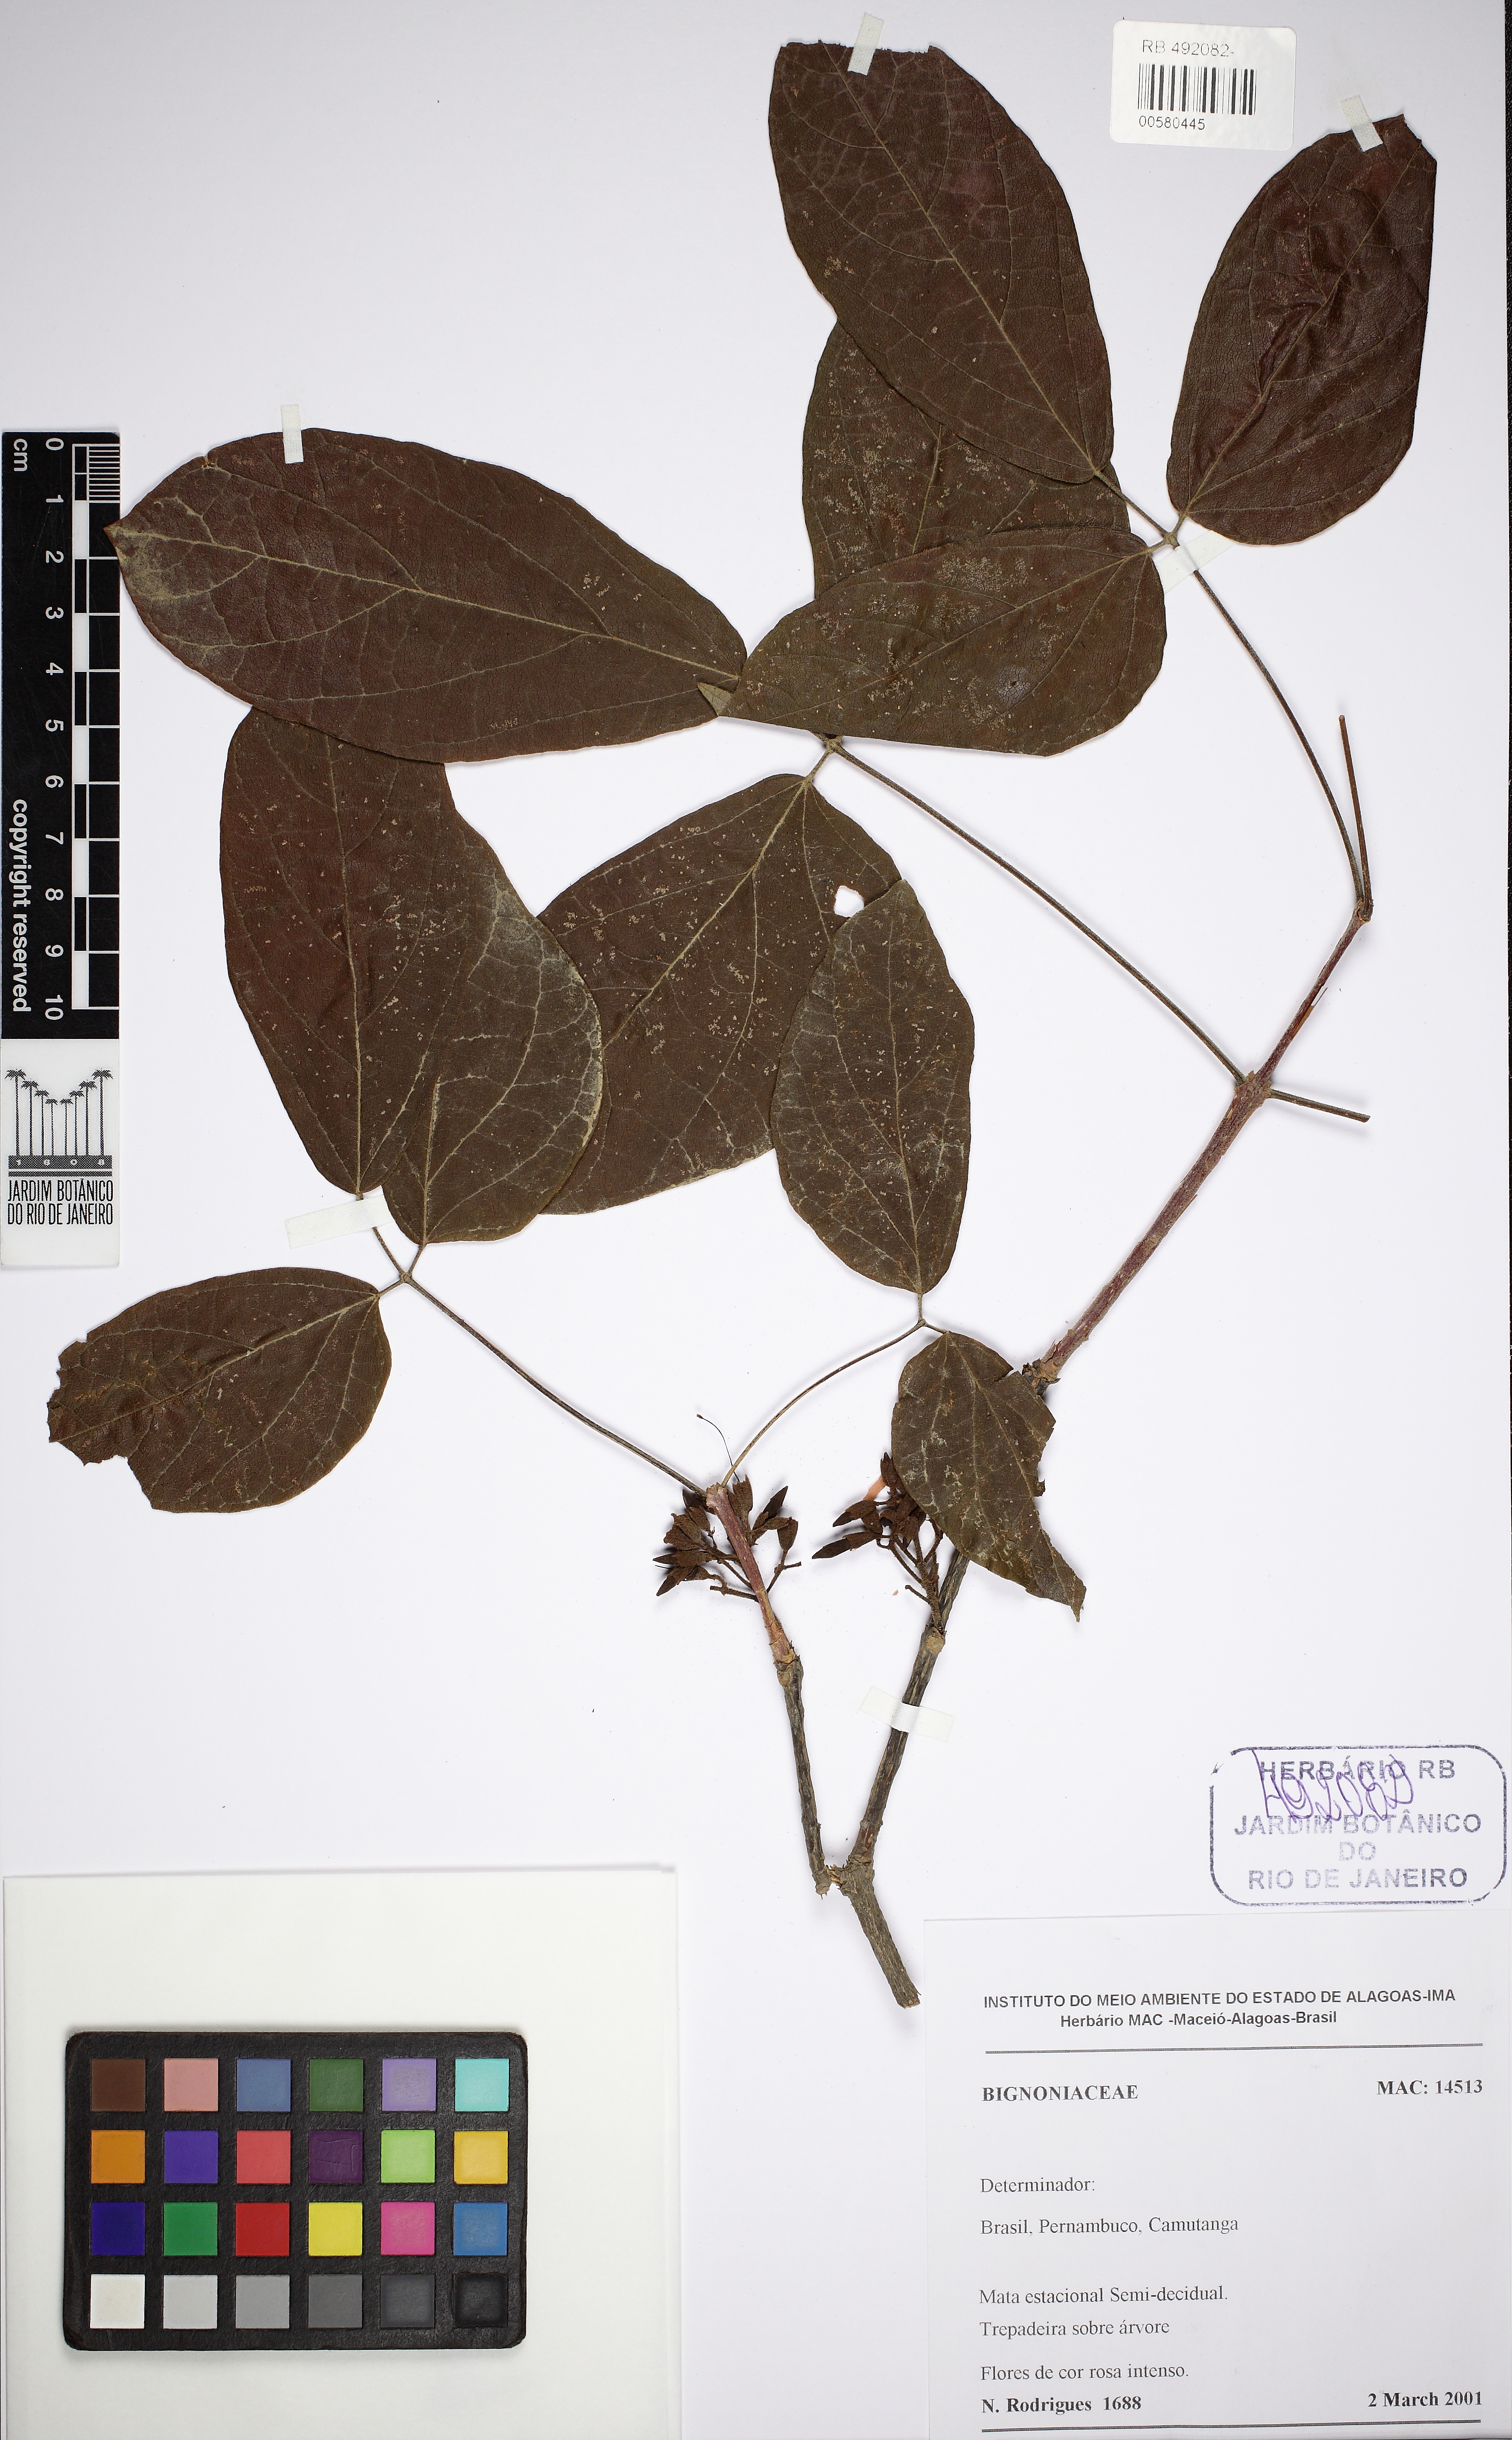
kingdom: Plantae
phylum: Tracheophyta
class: Magnoliopsida
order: Lamiales
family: Bignoniaceae
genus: Fridericia
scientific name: Fridericia dispar
